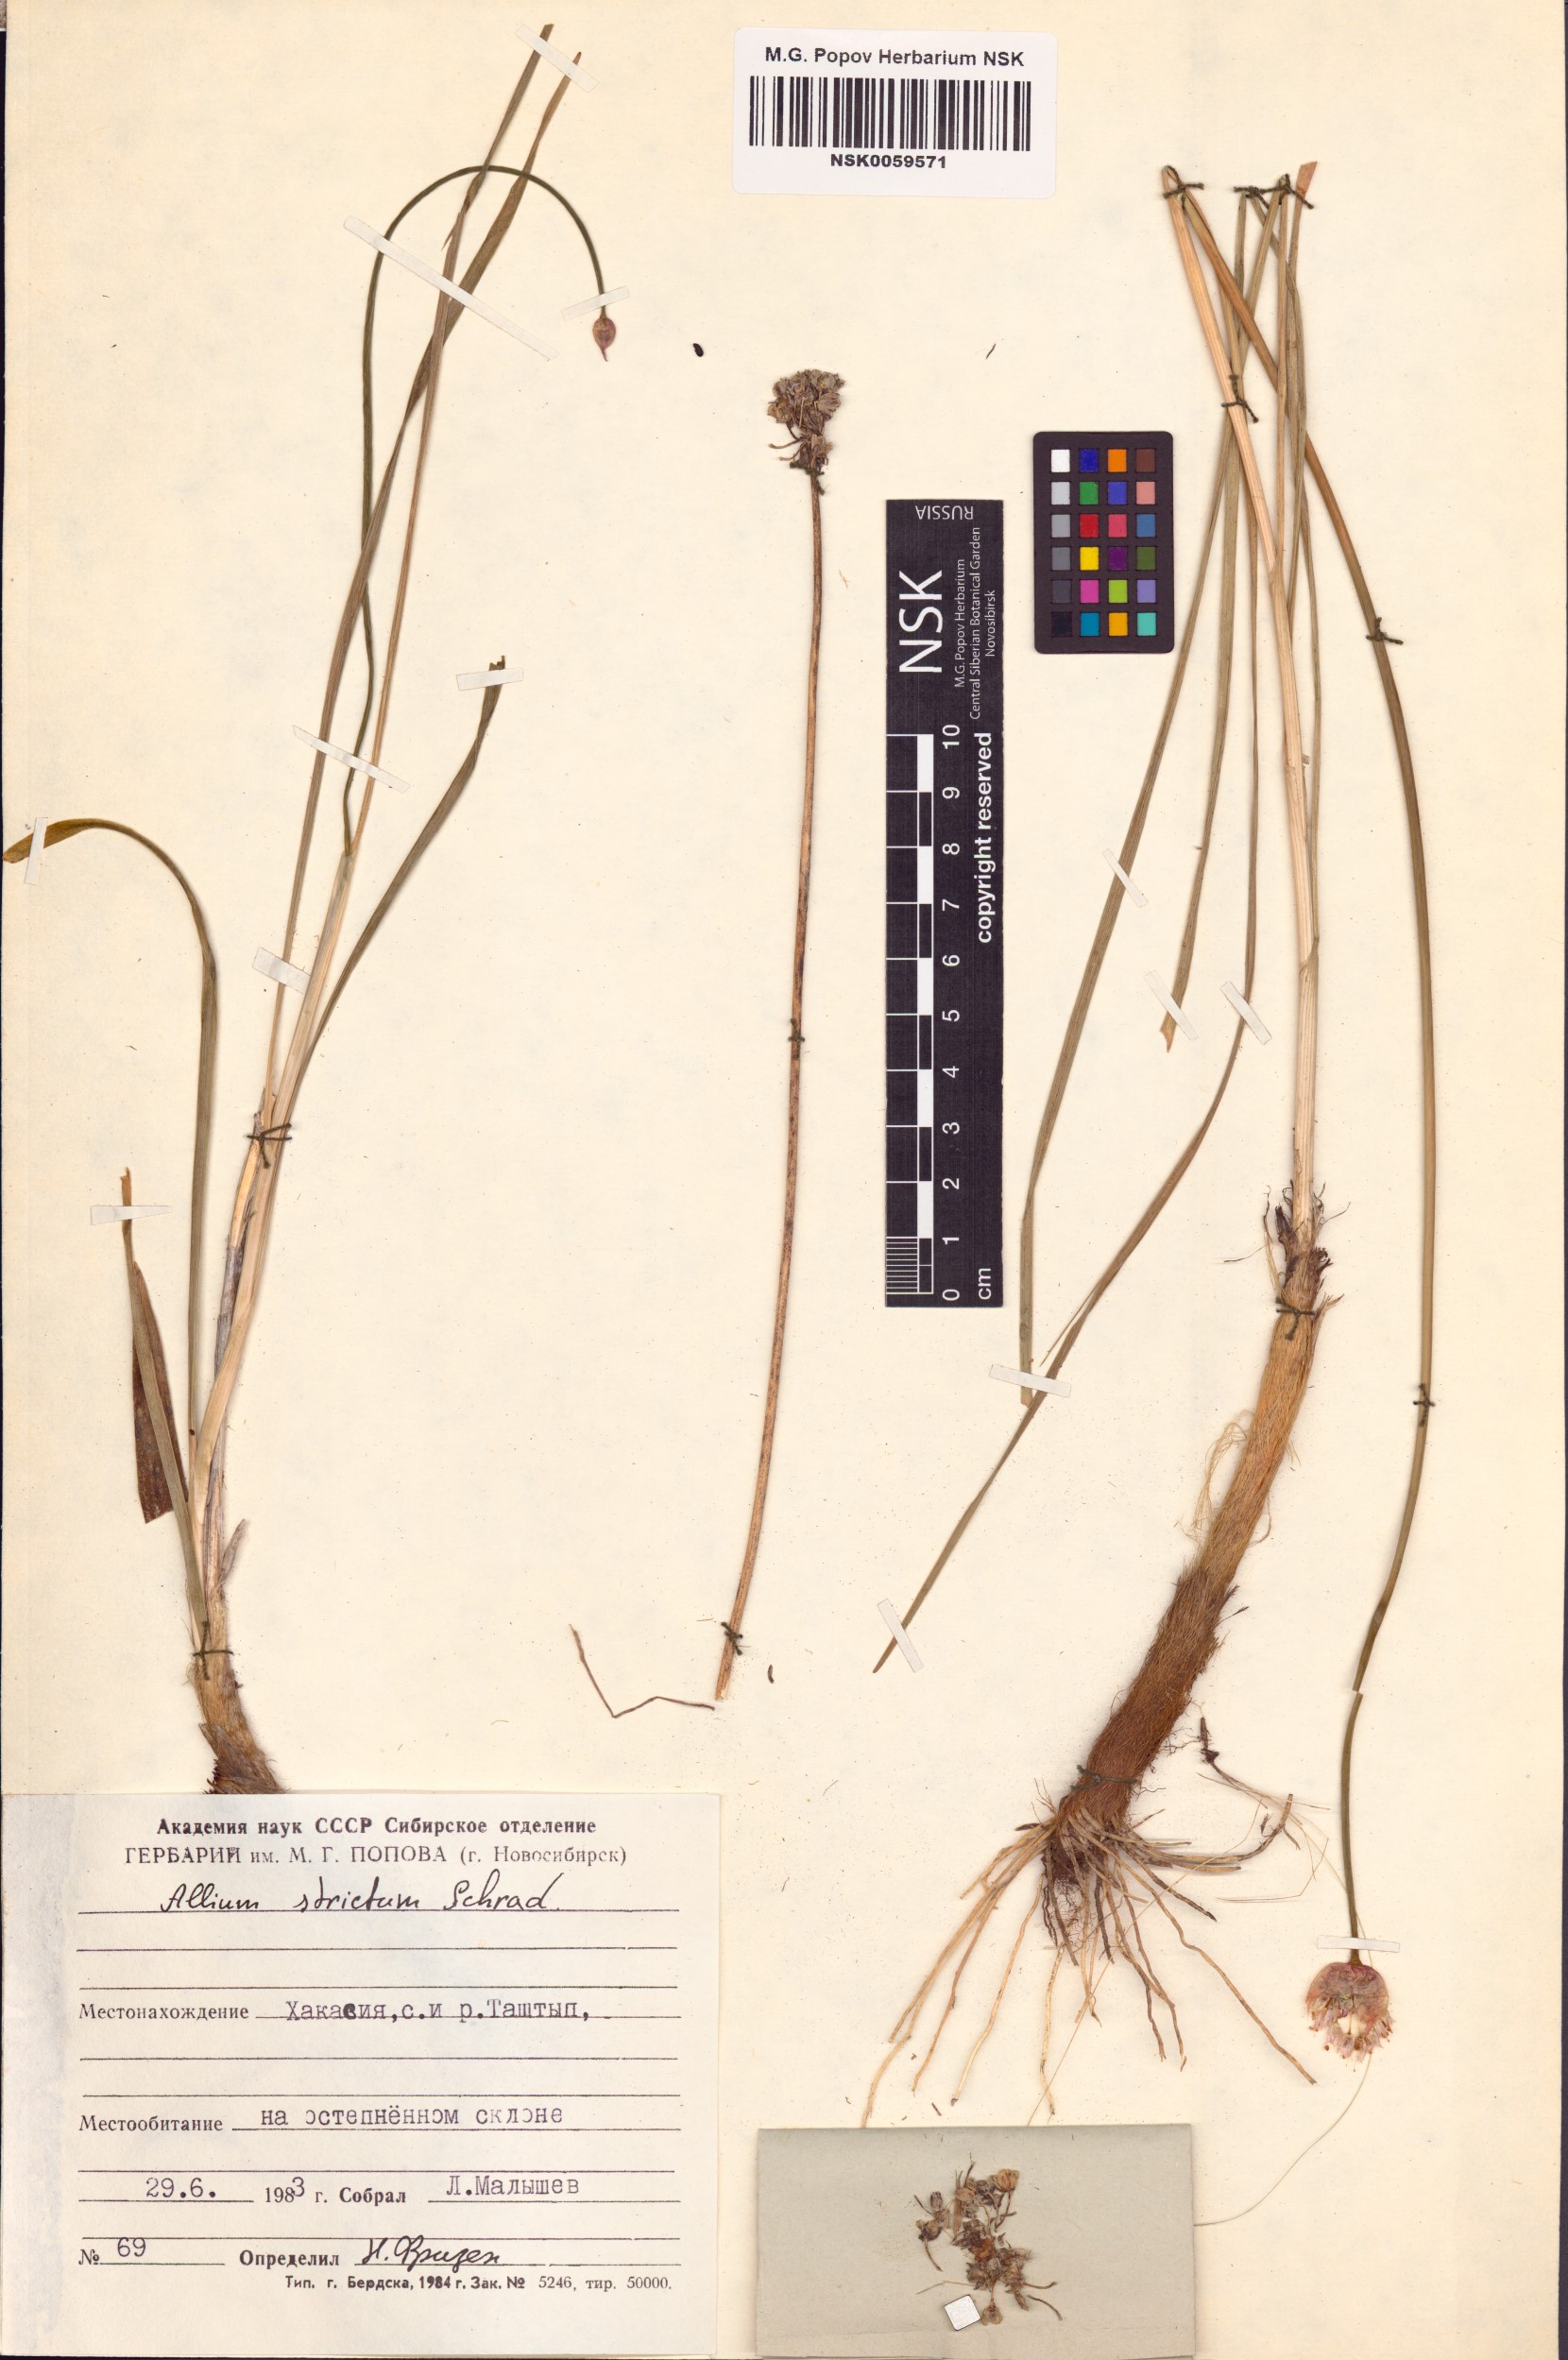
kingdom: Plantae
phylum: Tracheophyta
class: Liliopsida
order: Asparagales
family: Amaryllidaceae
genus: Allium
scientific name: Allium strictum
